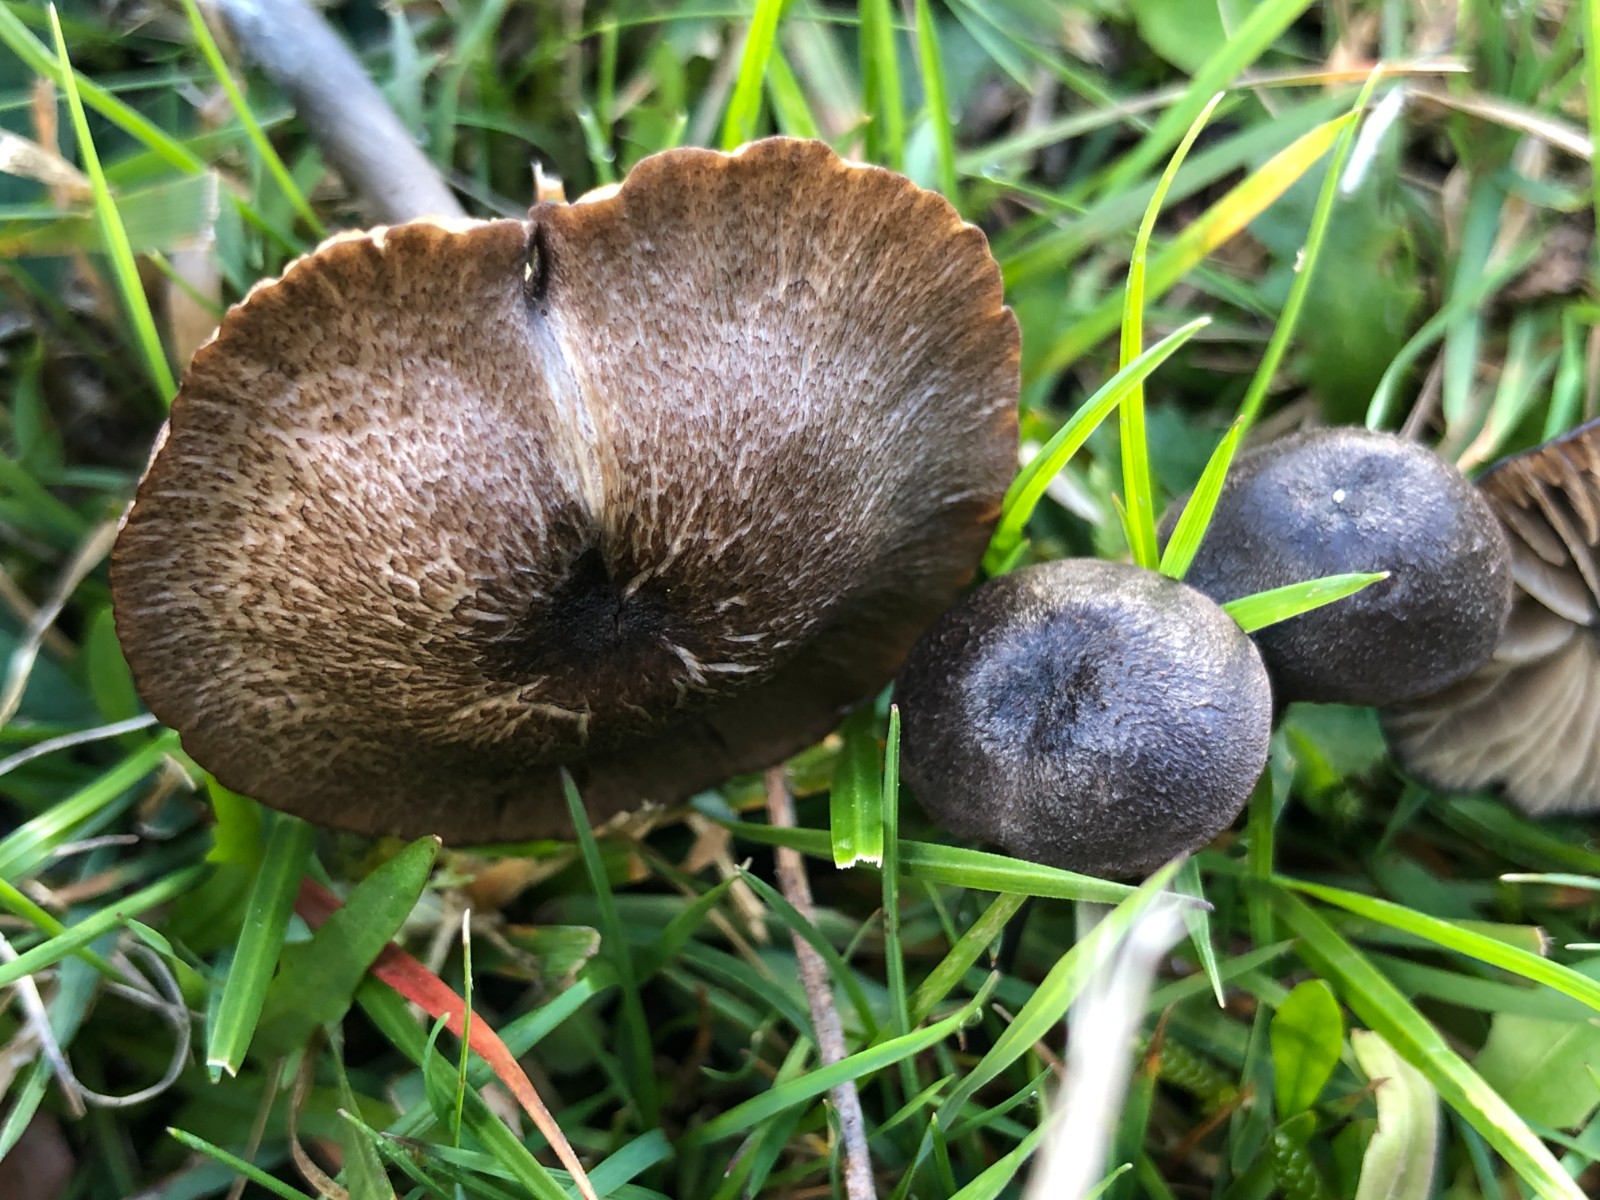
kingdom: Fungi
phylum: Basidiomycota
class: Agaricomycetes
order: Agaricales
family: Entolomataceae
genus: Entoloma
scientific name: Entoloma asprellum
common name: ru rødblad
